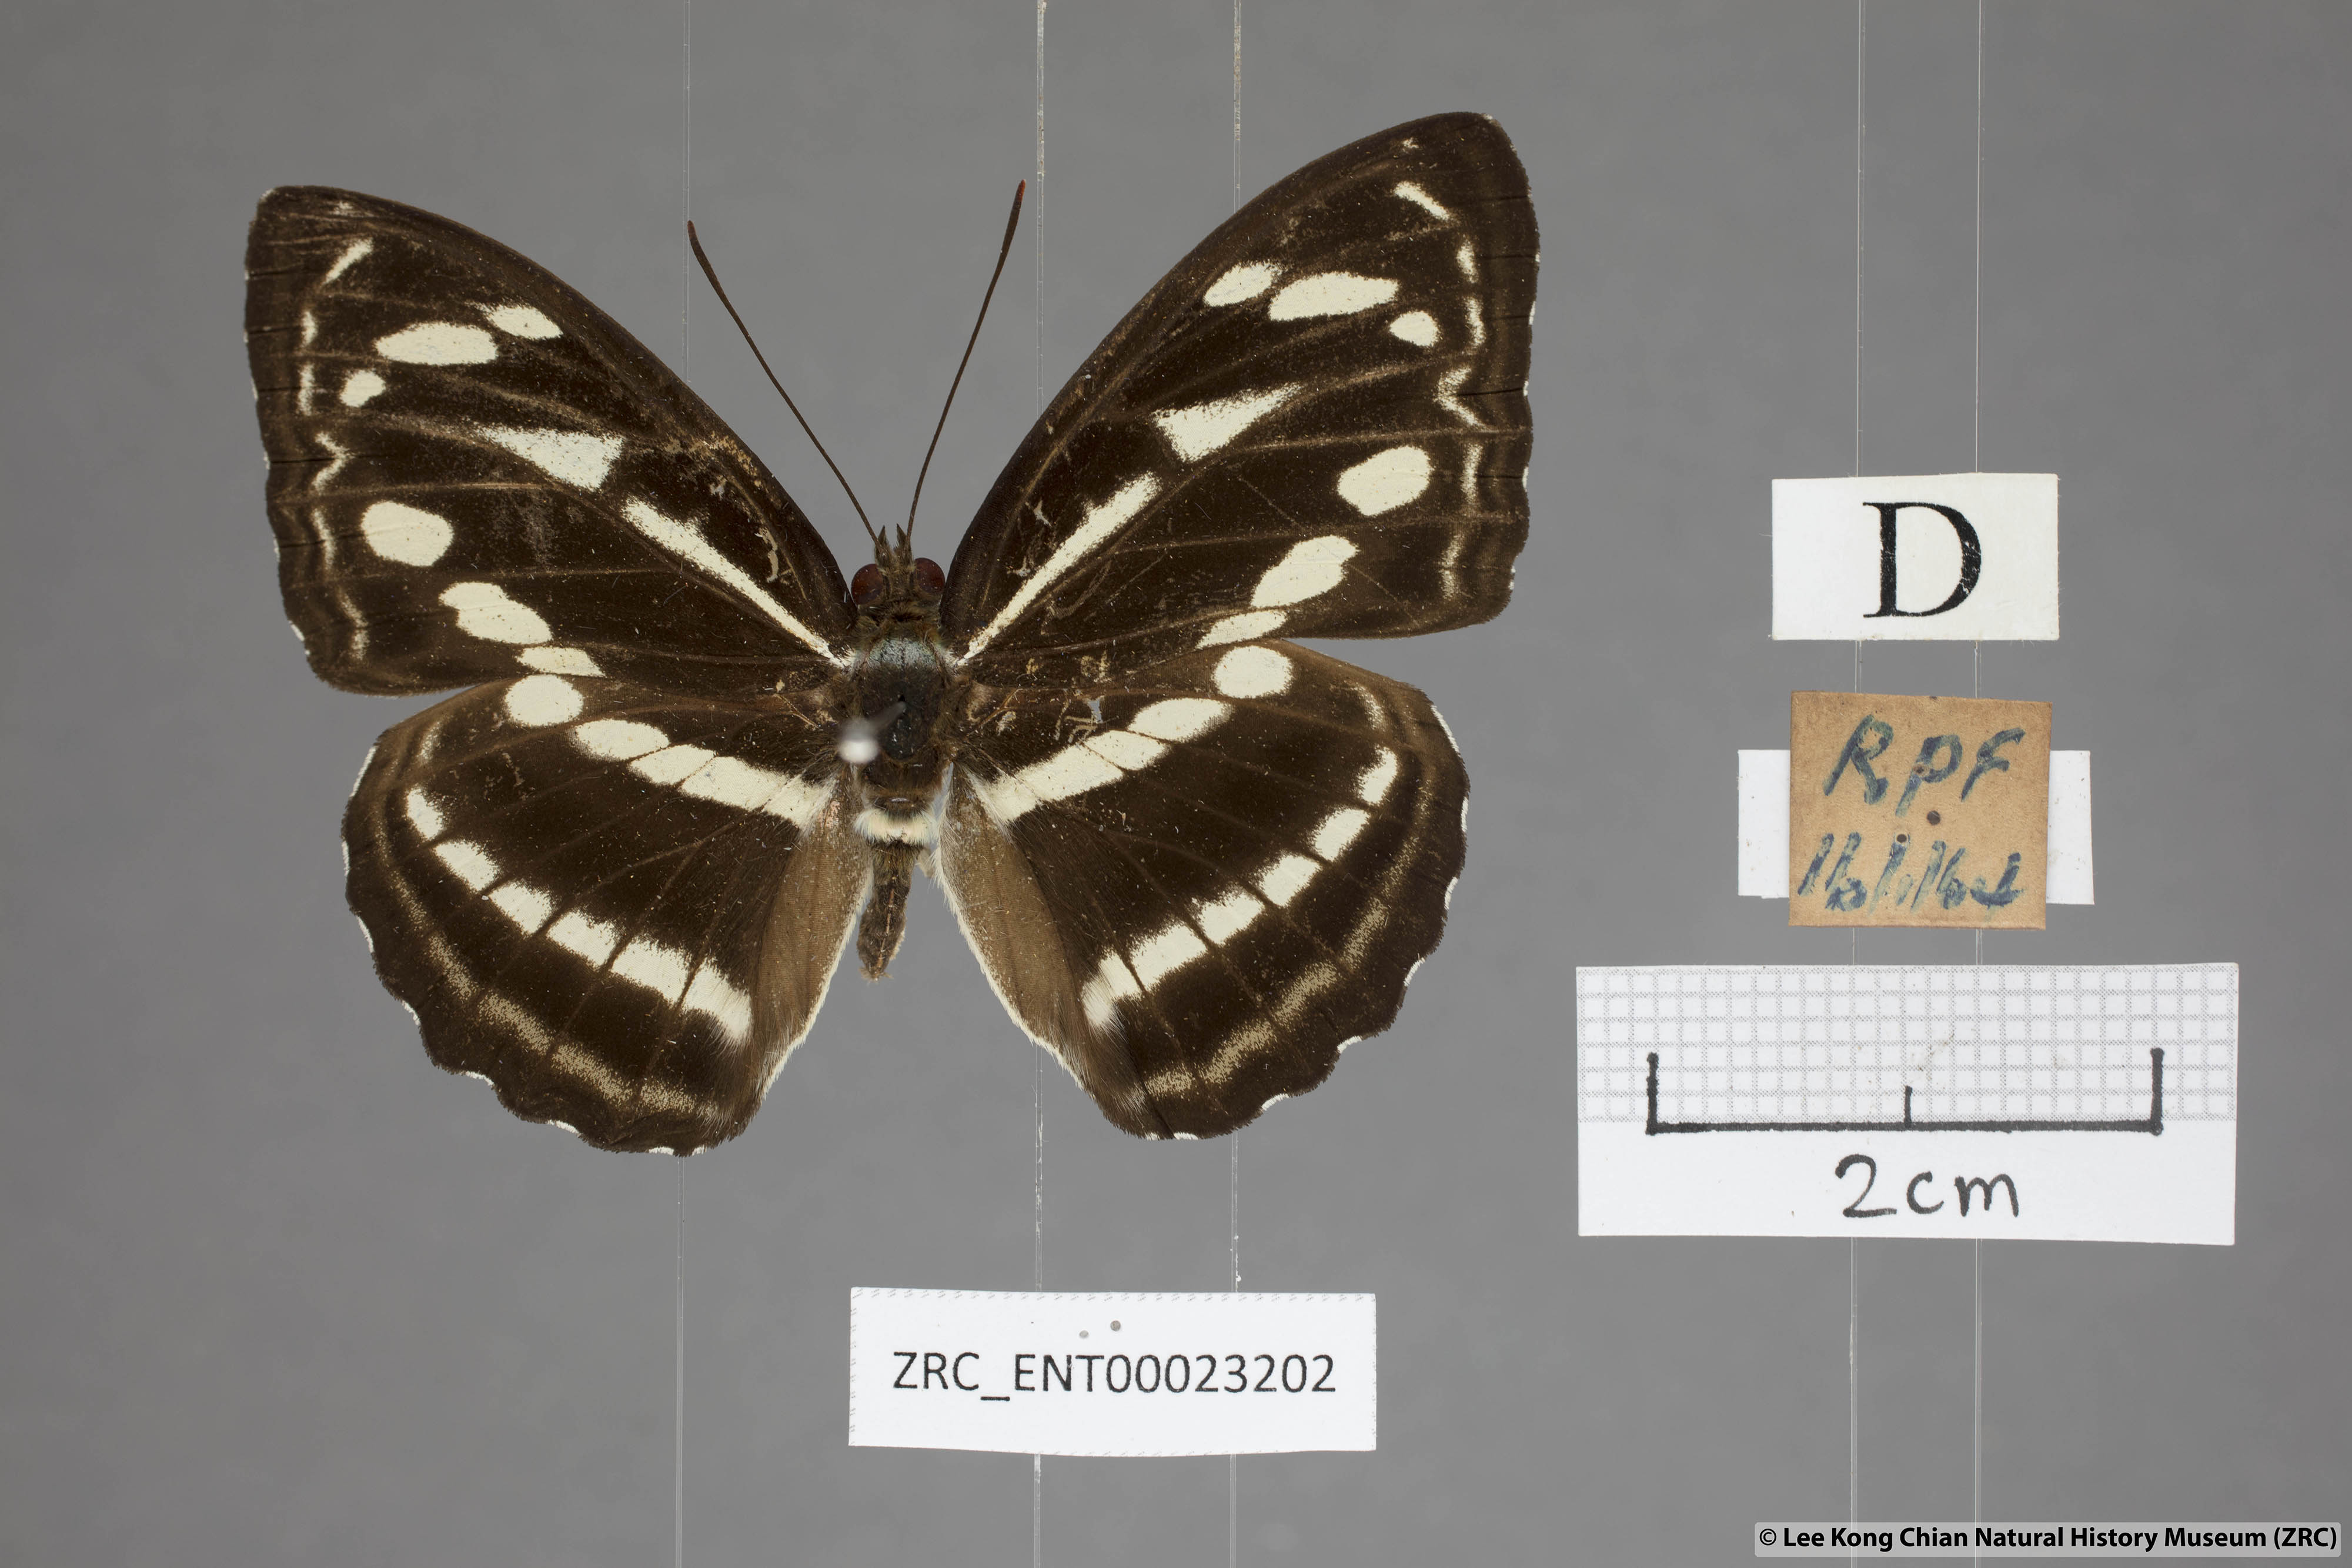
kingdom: Animalia
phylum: Arthropoda
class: Insecta
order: Lepidoptera
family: Nymphalidae
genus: Parathyma
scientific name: Parathyma kanwa
